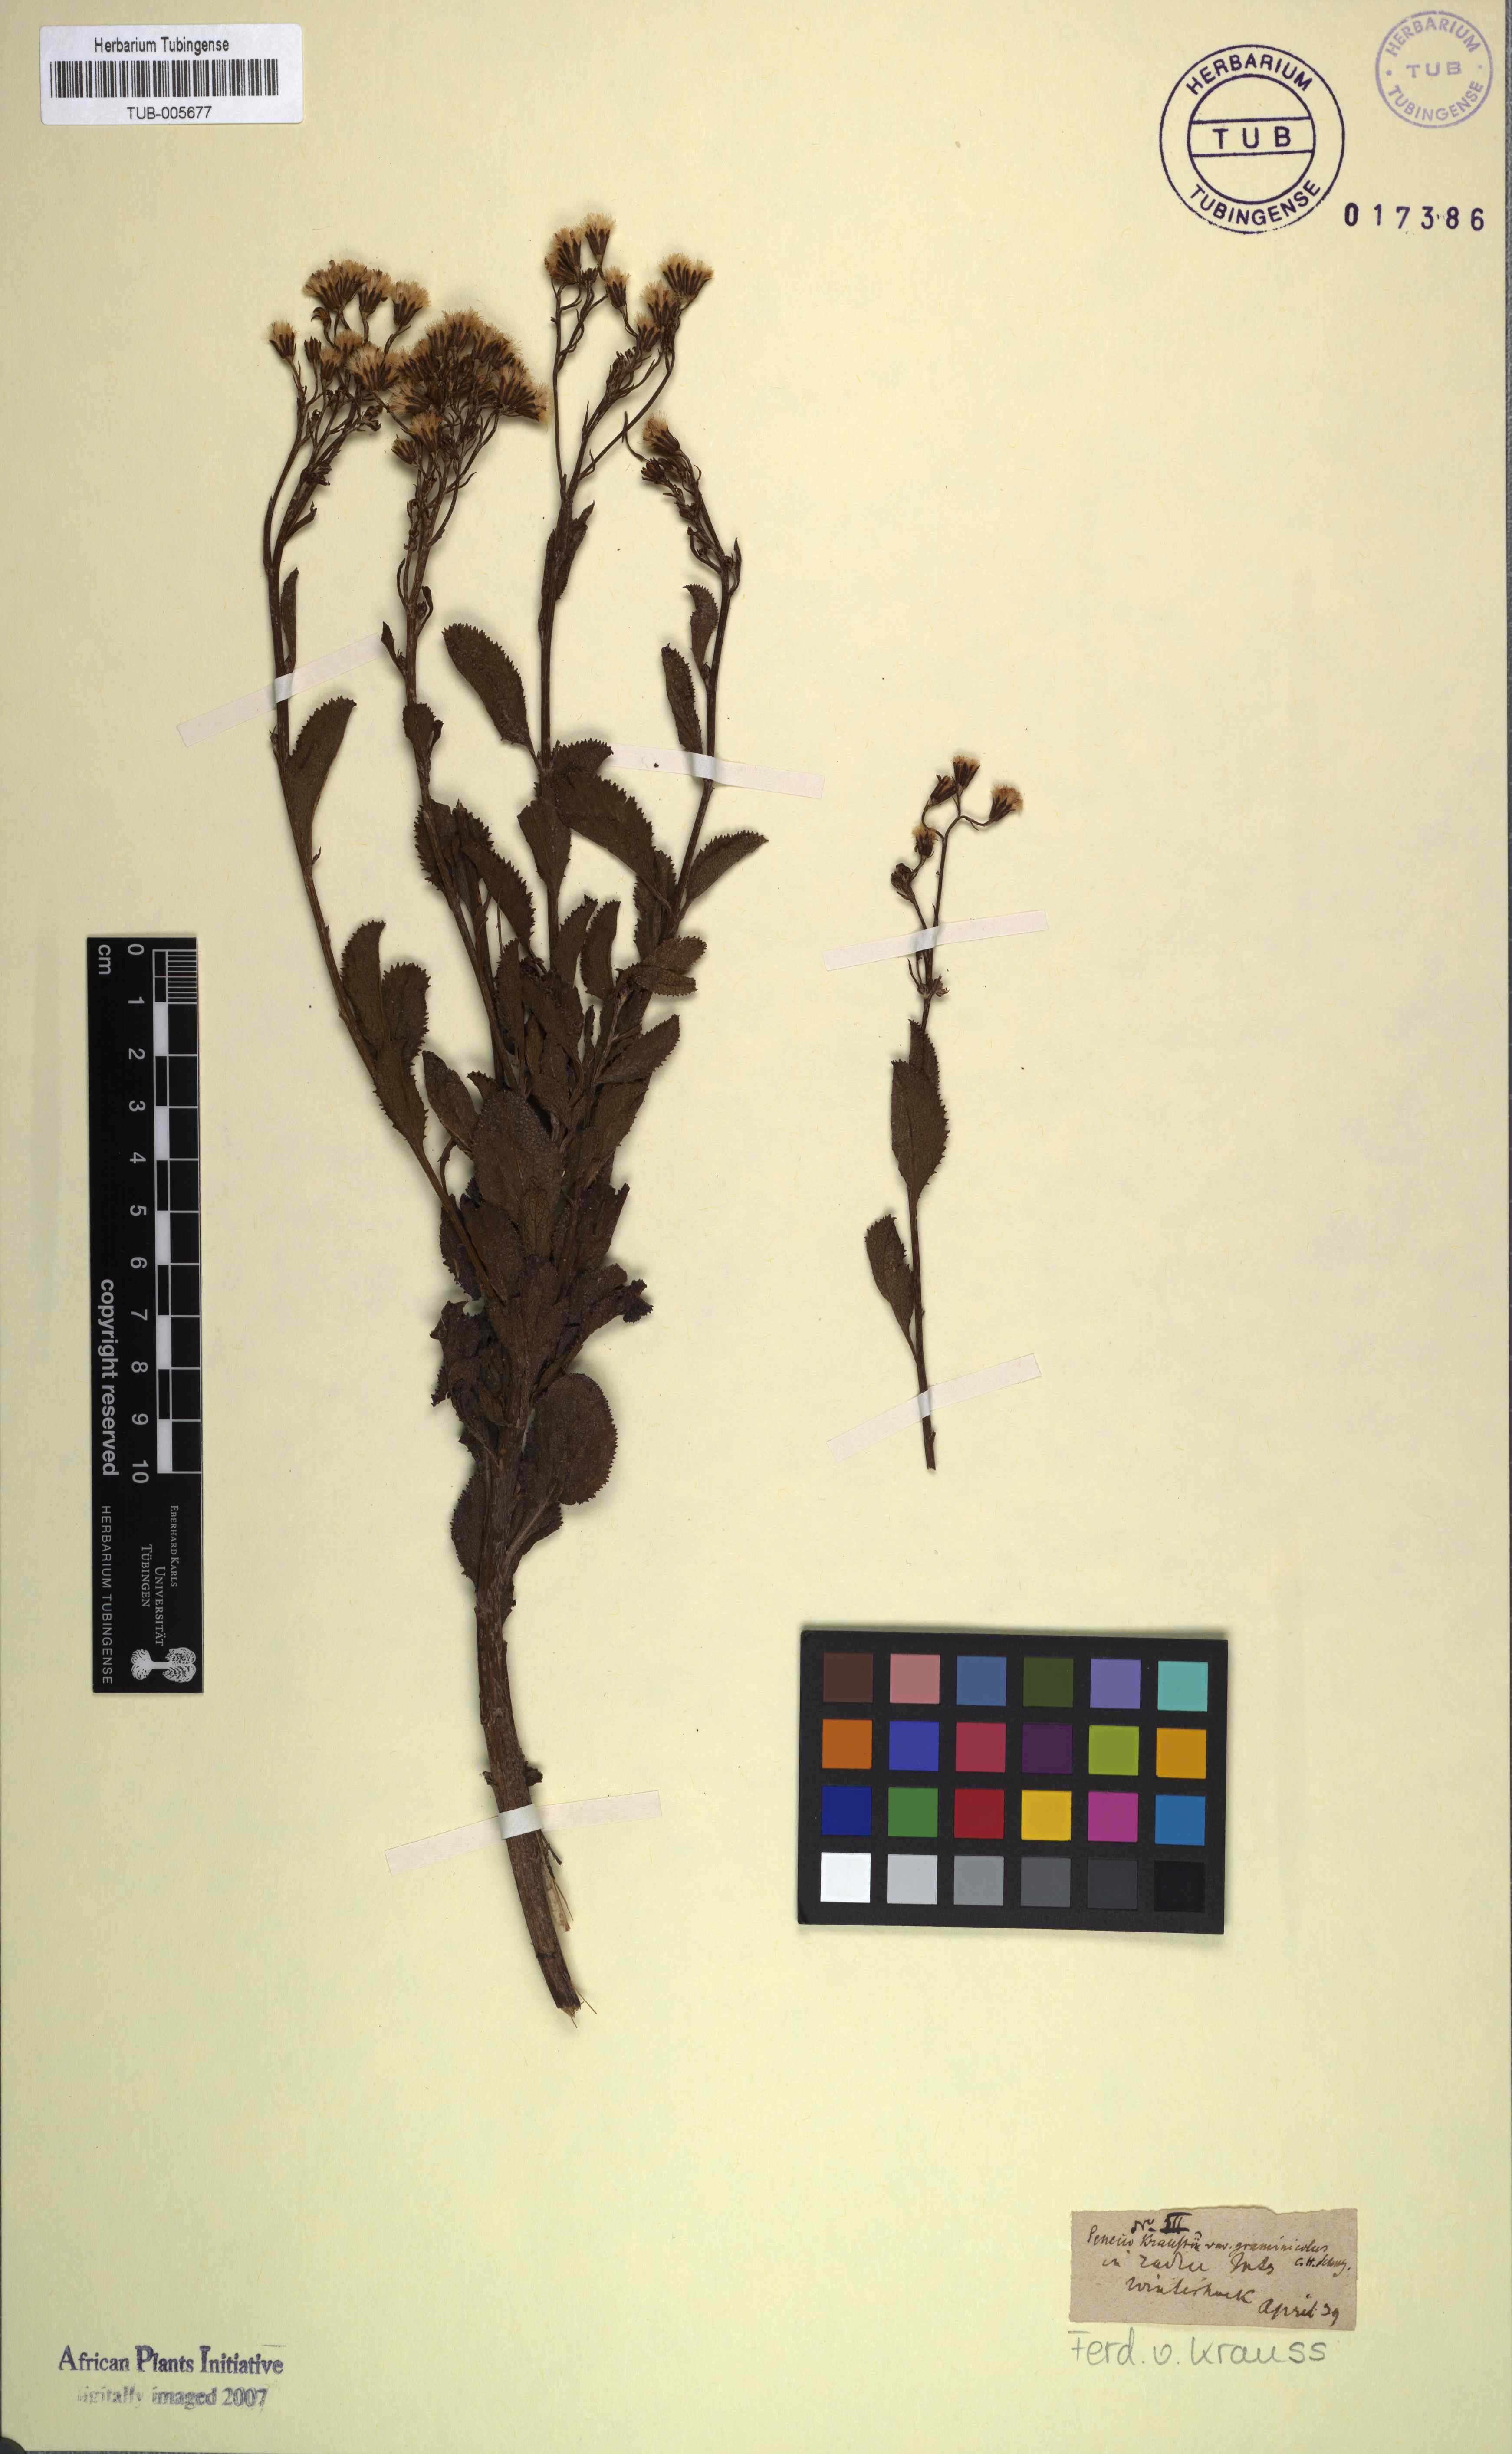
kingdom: Plantae
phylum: Tracheophyta
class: Magnoliopsida
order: Asterales
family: Asteraceae
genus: Hertia
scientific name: Hertia kraussii
